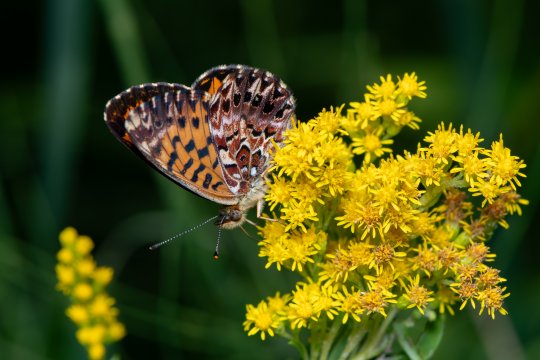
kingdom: Animalia
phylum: Arthropoda
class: Insecta
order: Lepidoptera
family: Nymphalidae
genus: Boloria
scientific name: Boloria chariclea
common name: Arctic Fritillary
